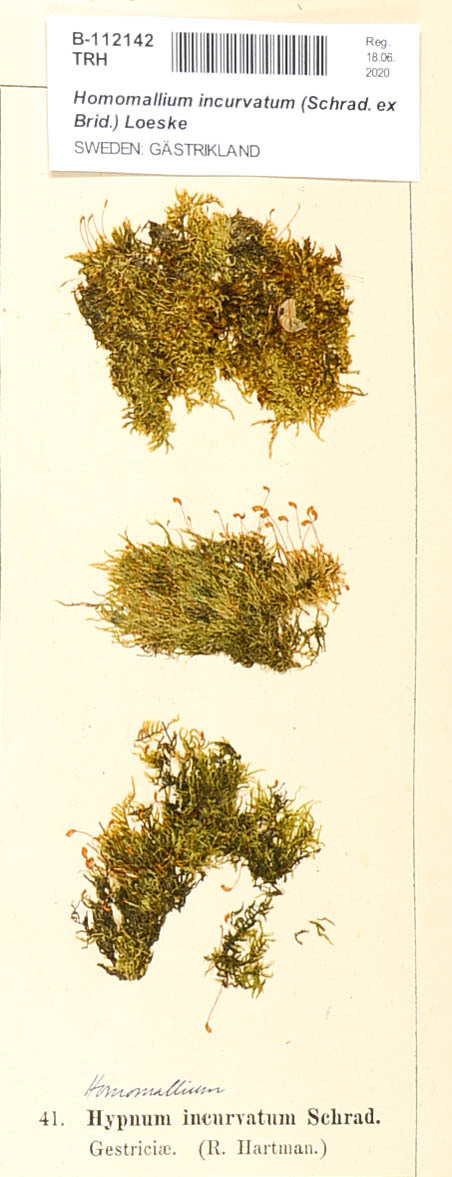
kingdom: Plantae
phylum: Bryophyta
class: Bryopsida
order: Hypnales
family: Pylaisiaceae
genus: Homomallium
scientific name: Homomallium incurvatum
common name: Incurved feather-moss
